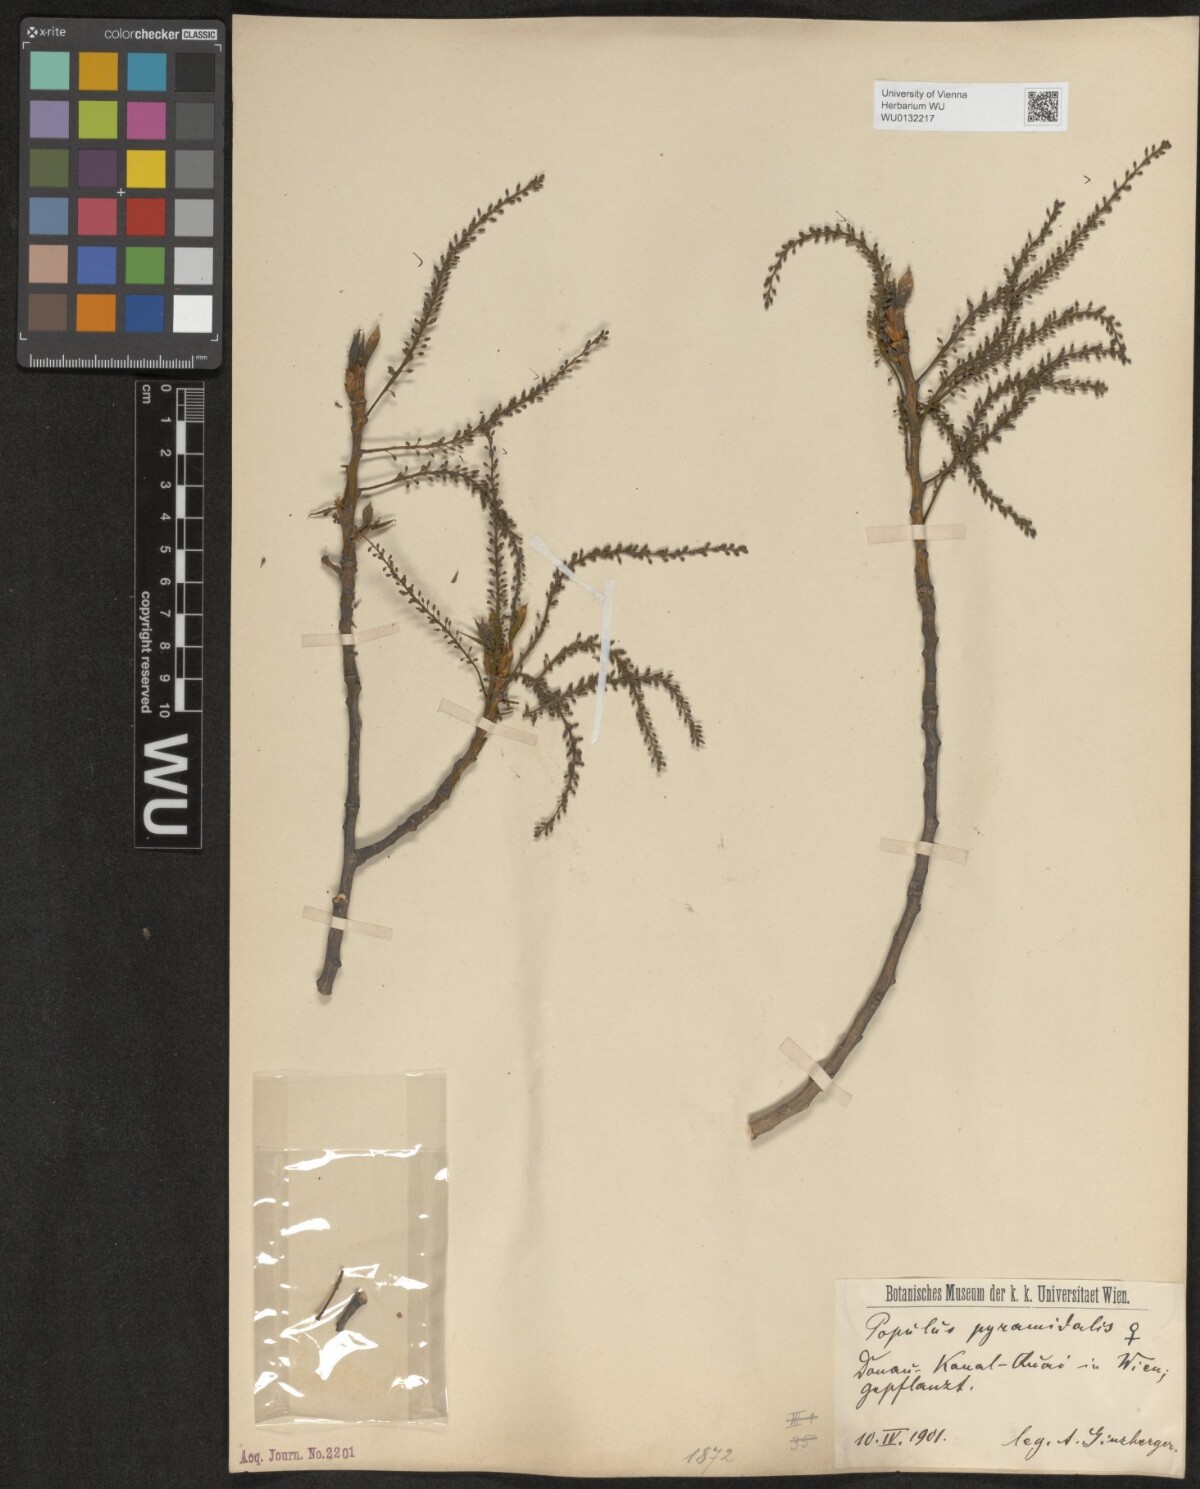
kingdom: Plantae
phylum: Tracheophyta
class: Magnoliopsida
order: Malpighiales
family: Salicaceae
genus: Populus
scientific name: Populus nigra
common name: Black poplar
